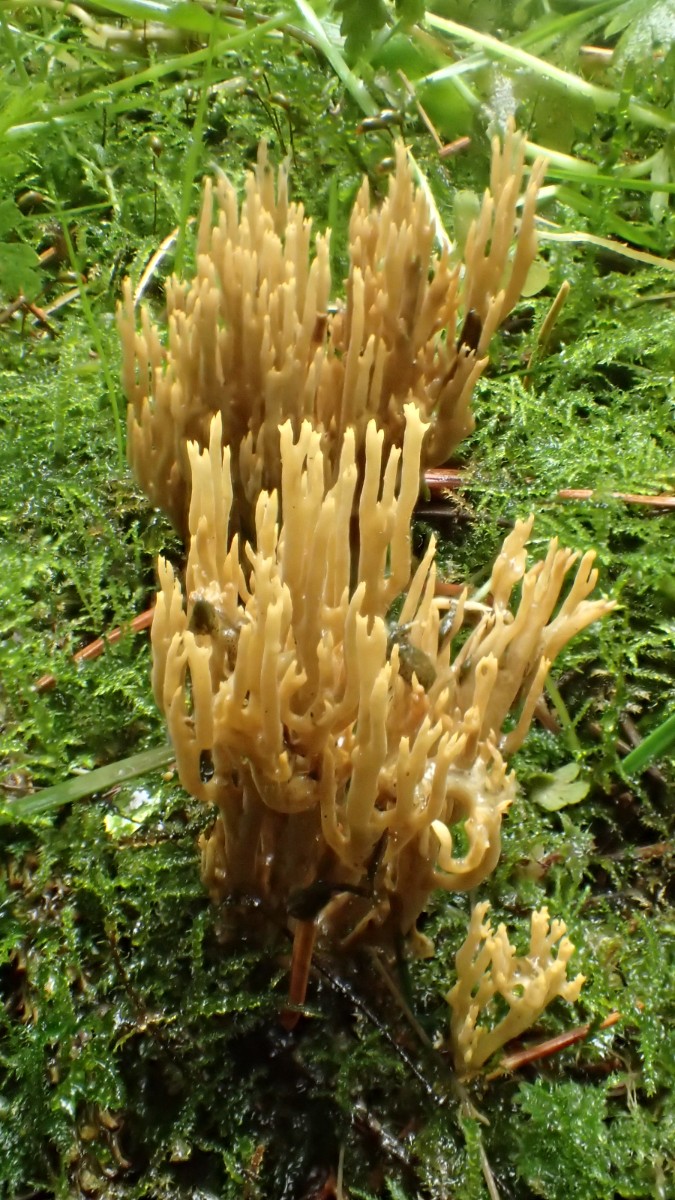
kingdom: Fungi
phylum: Basidiomycota
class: Agaricomycetes
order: Gomphales
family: Gomphaceae
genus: Phaeoclavulina
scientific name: Phaeoclavulina eumorpha
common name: gran-koralsvamp
